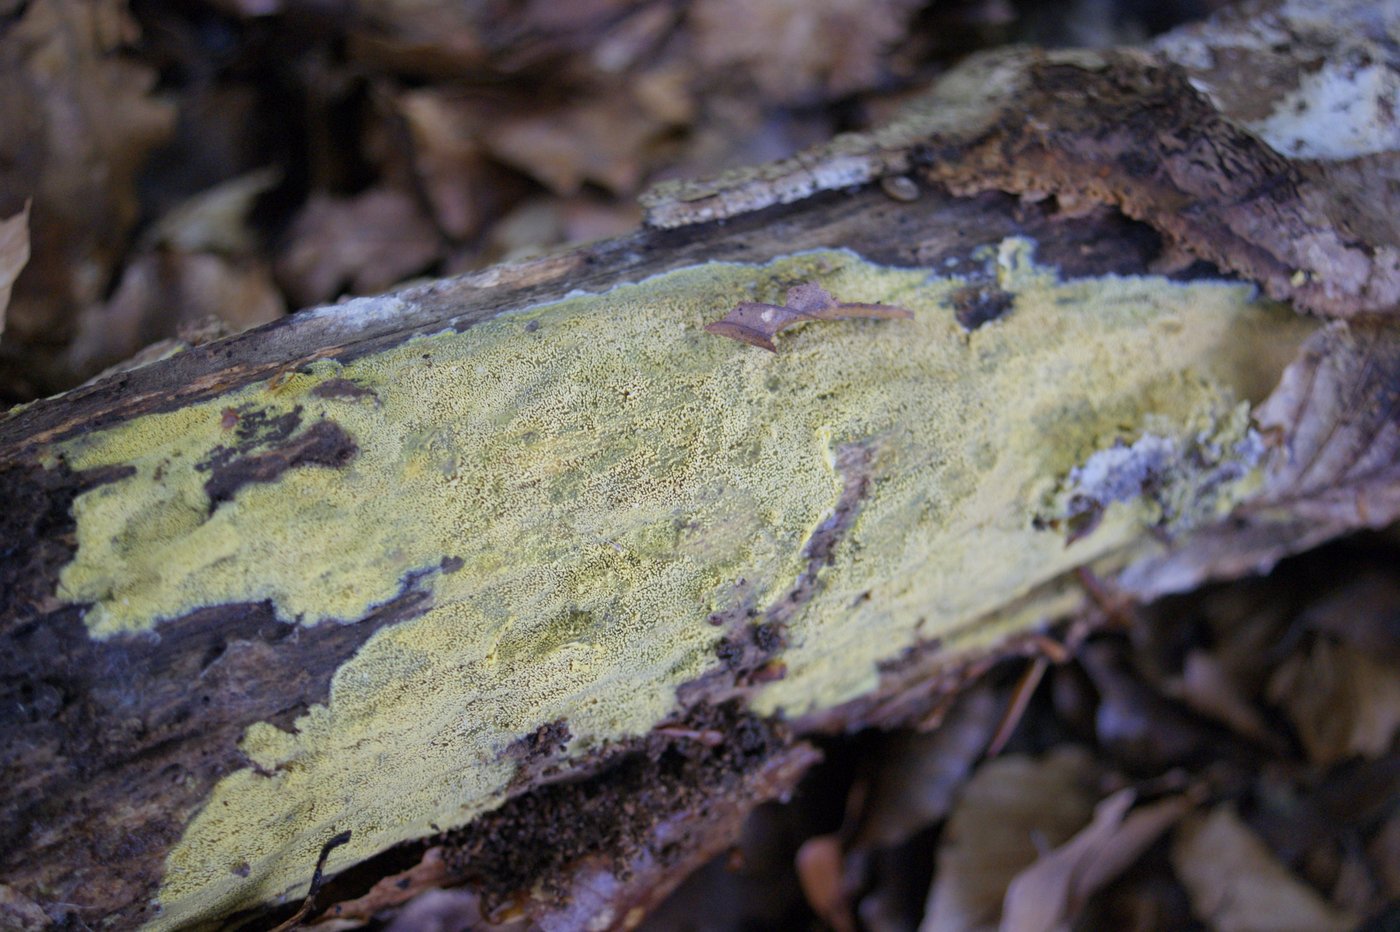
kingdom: Fungi
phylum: Basidiomycota
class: Agaricomycetes
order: Polyporales
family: Meruliaceae
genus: Mycoacia
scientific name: Mycoacia uda
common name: citrongul vokspig
